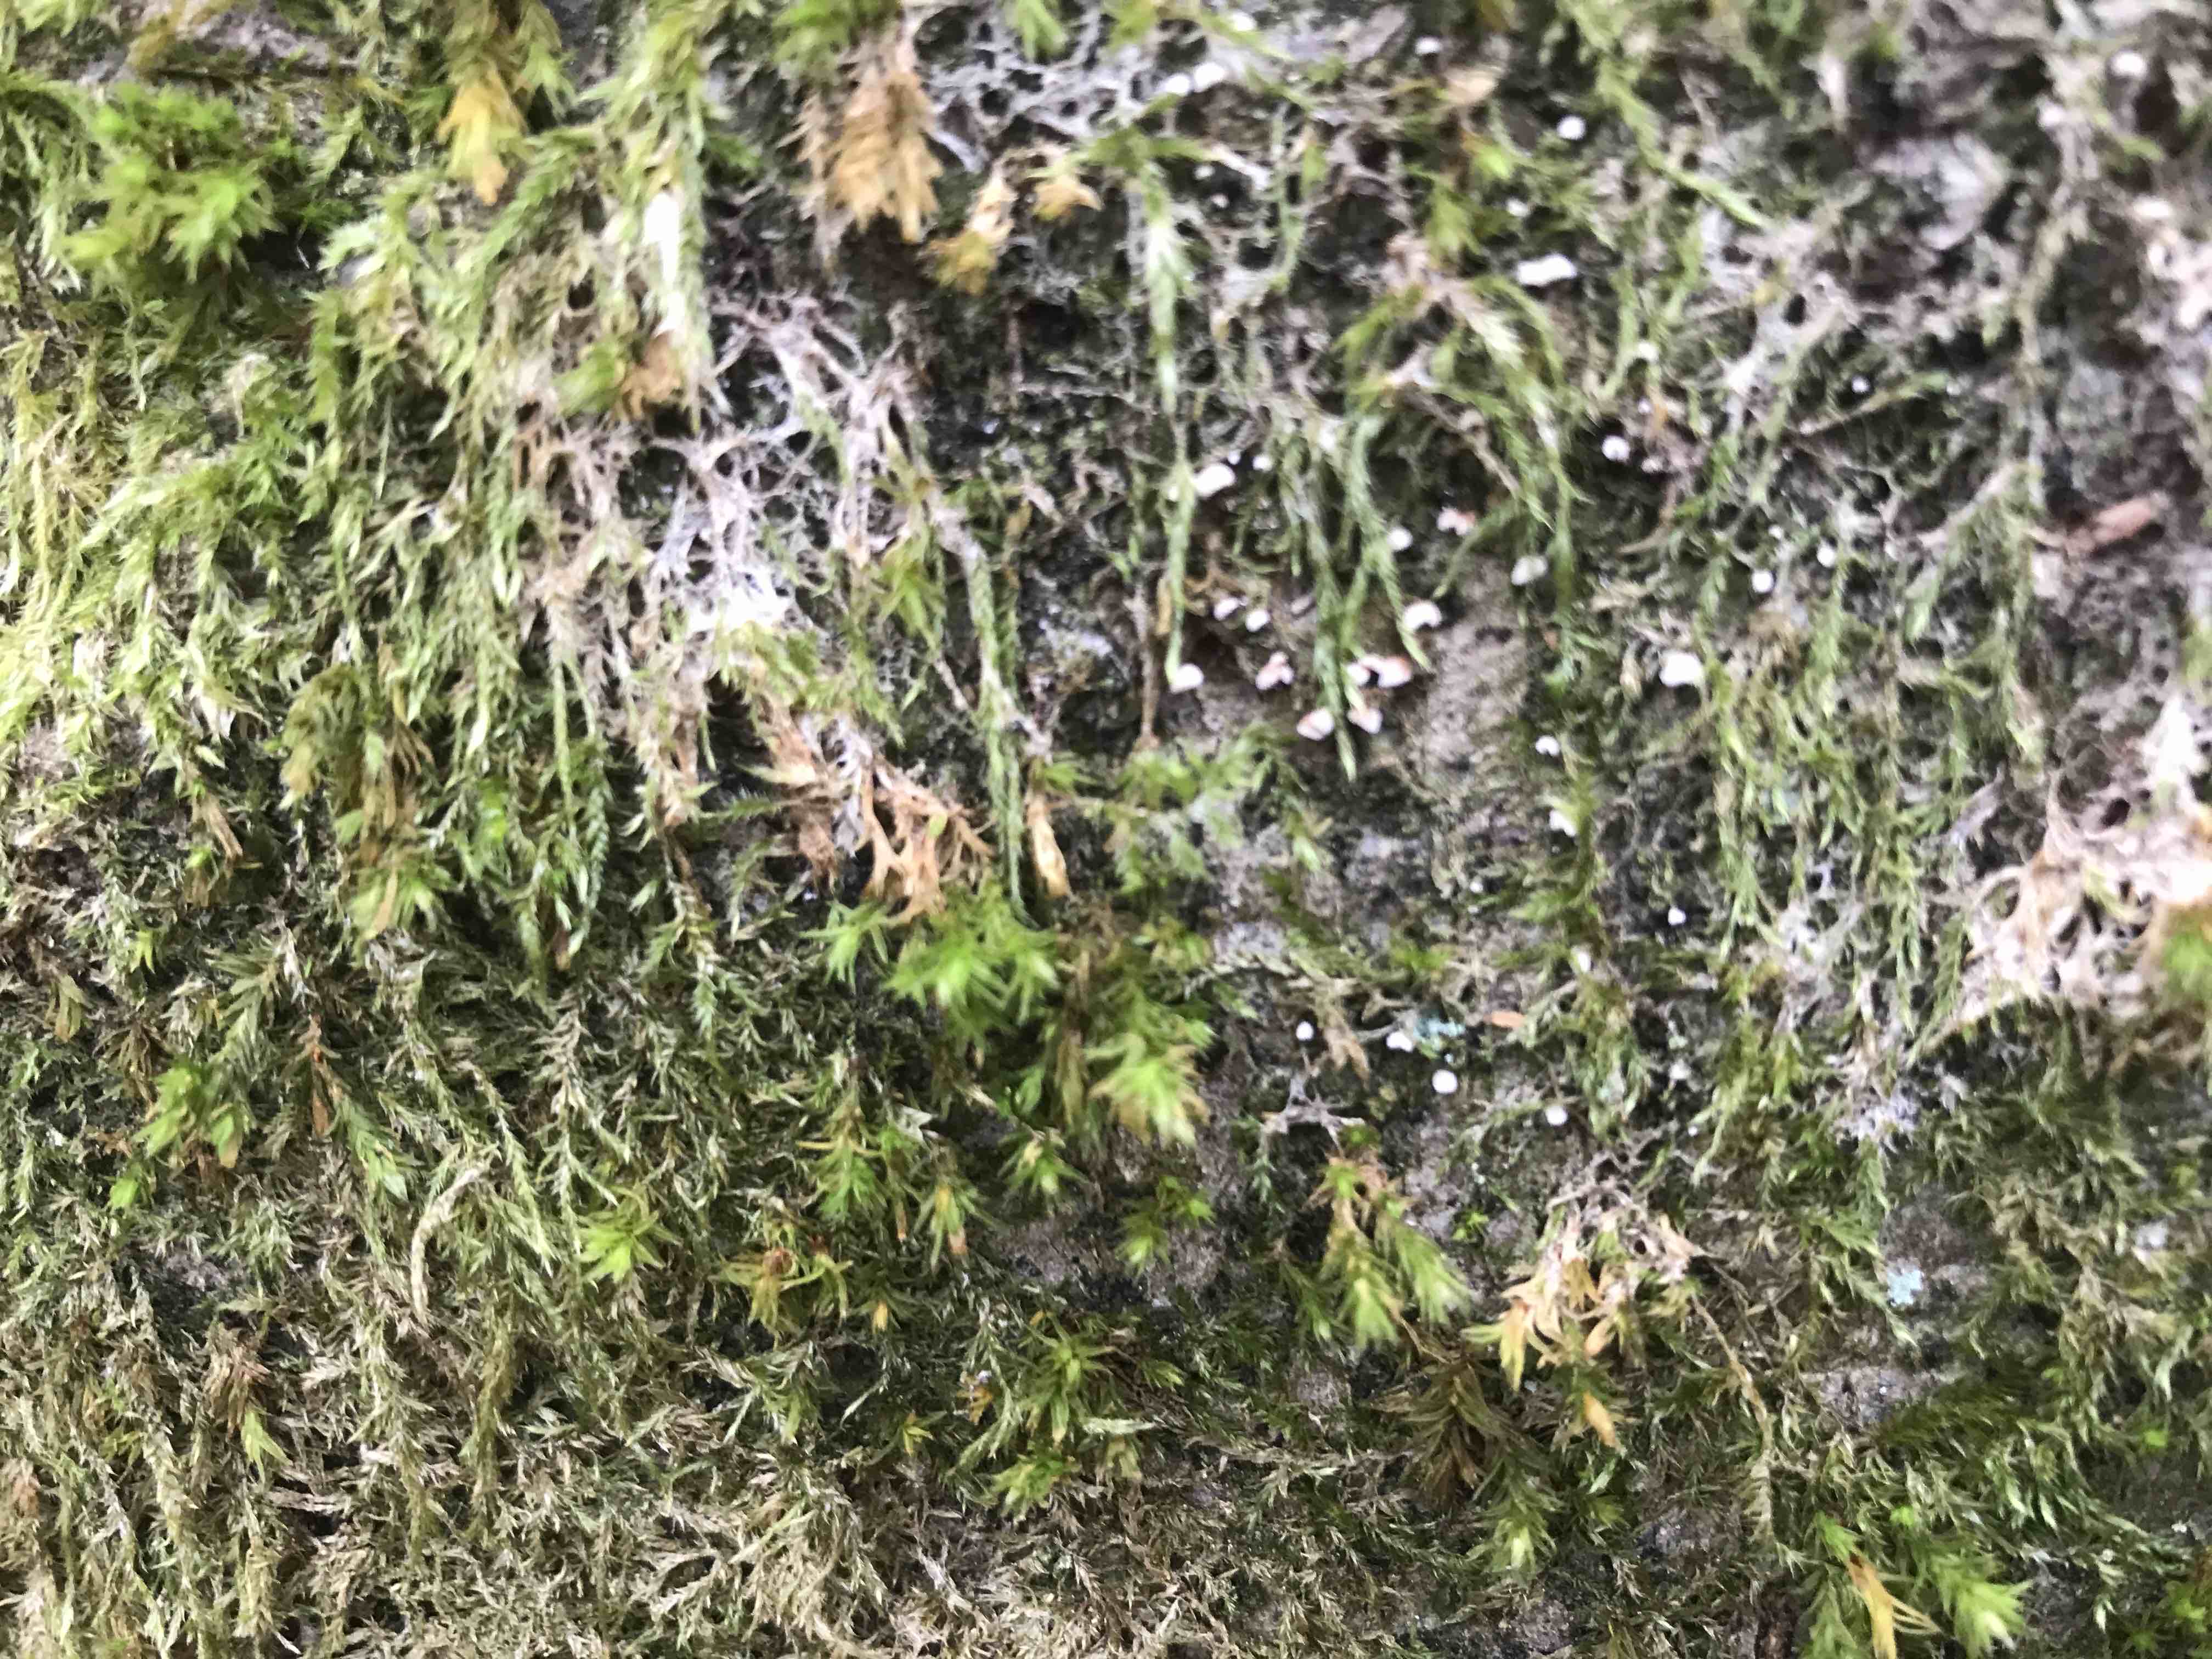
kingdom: Fungi
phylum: Basidiomycota
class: Agaricomycetes
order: Agaricales
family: Chromocyphellaceae
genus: Chromocyphella
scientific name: Chromocyphella muscicola
